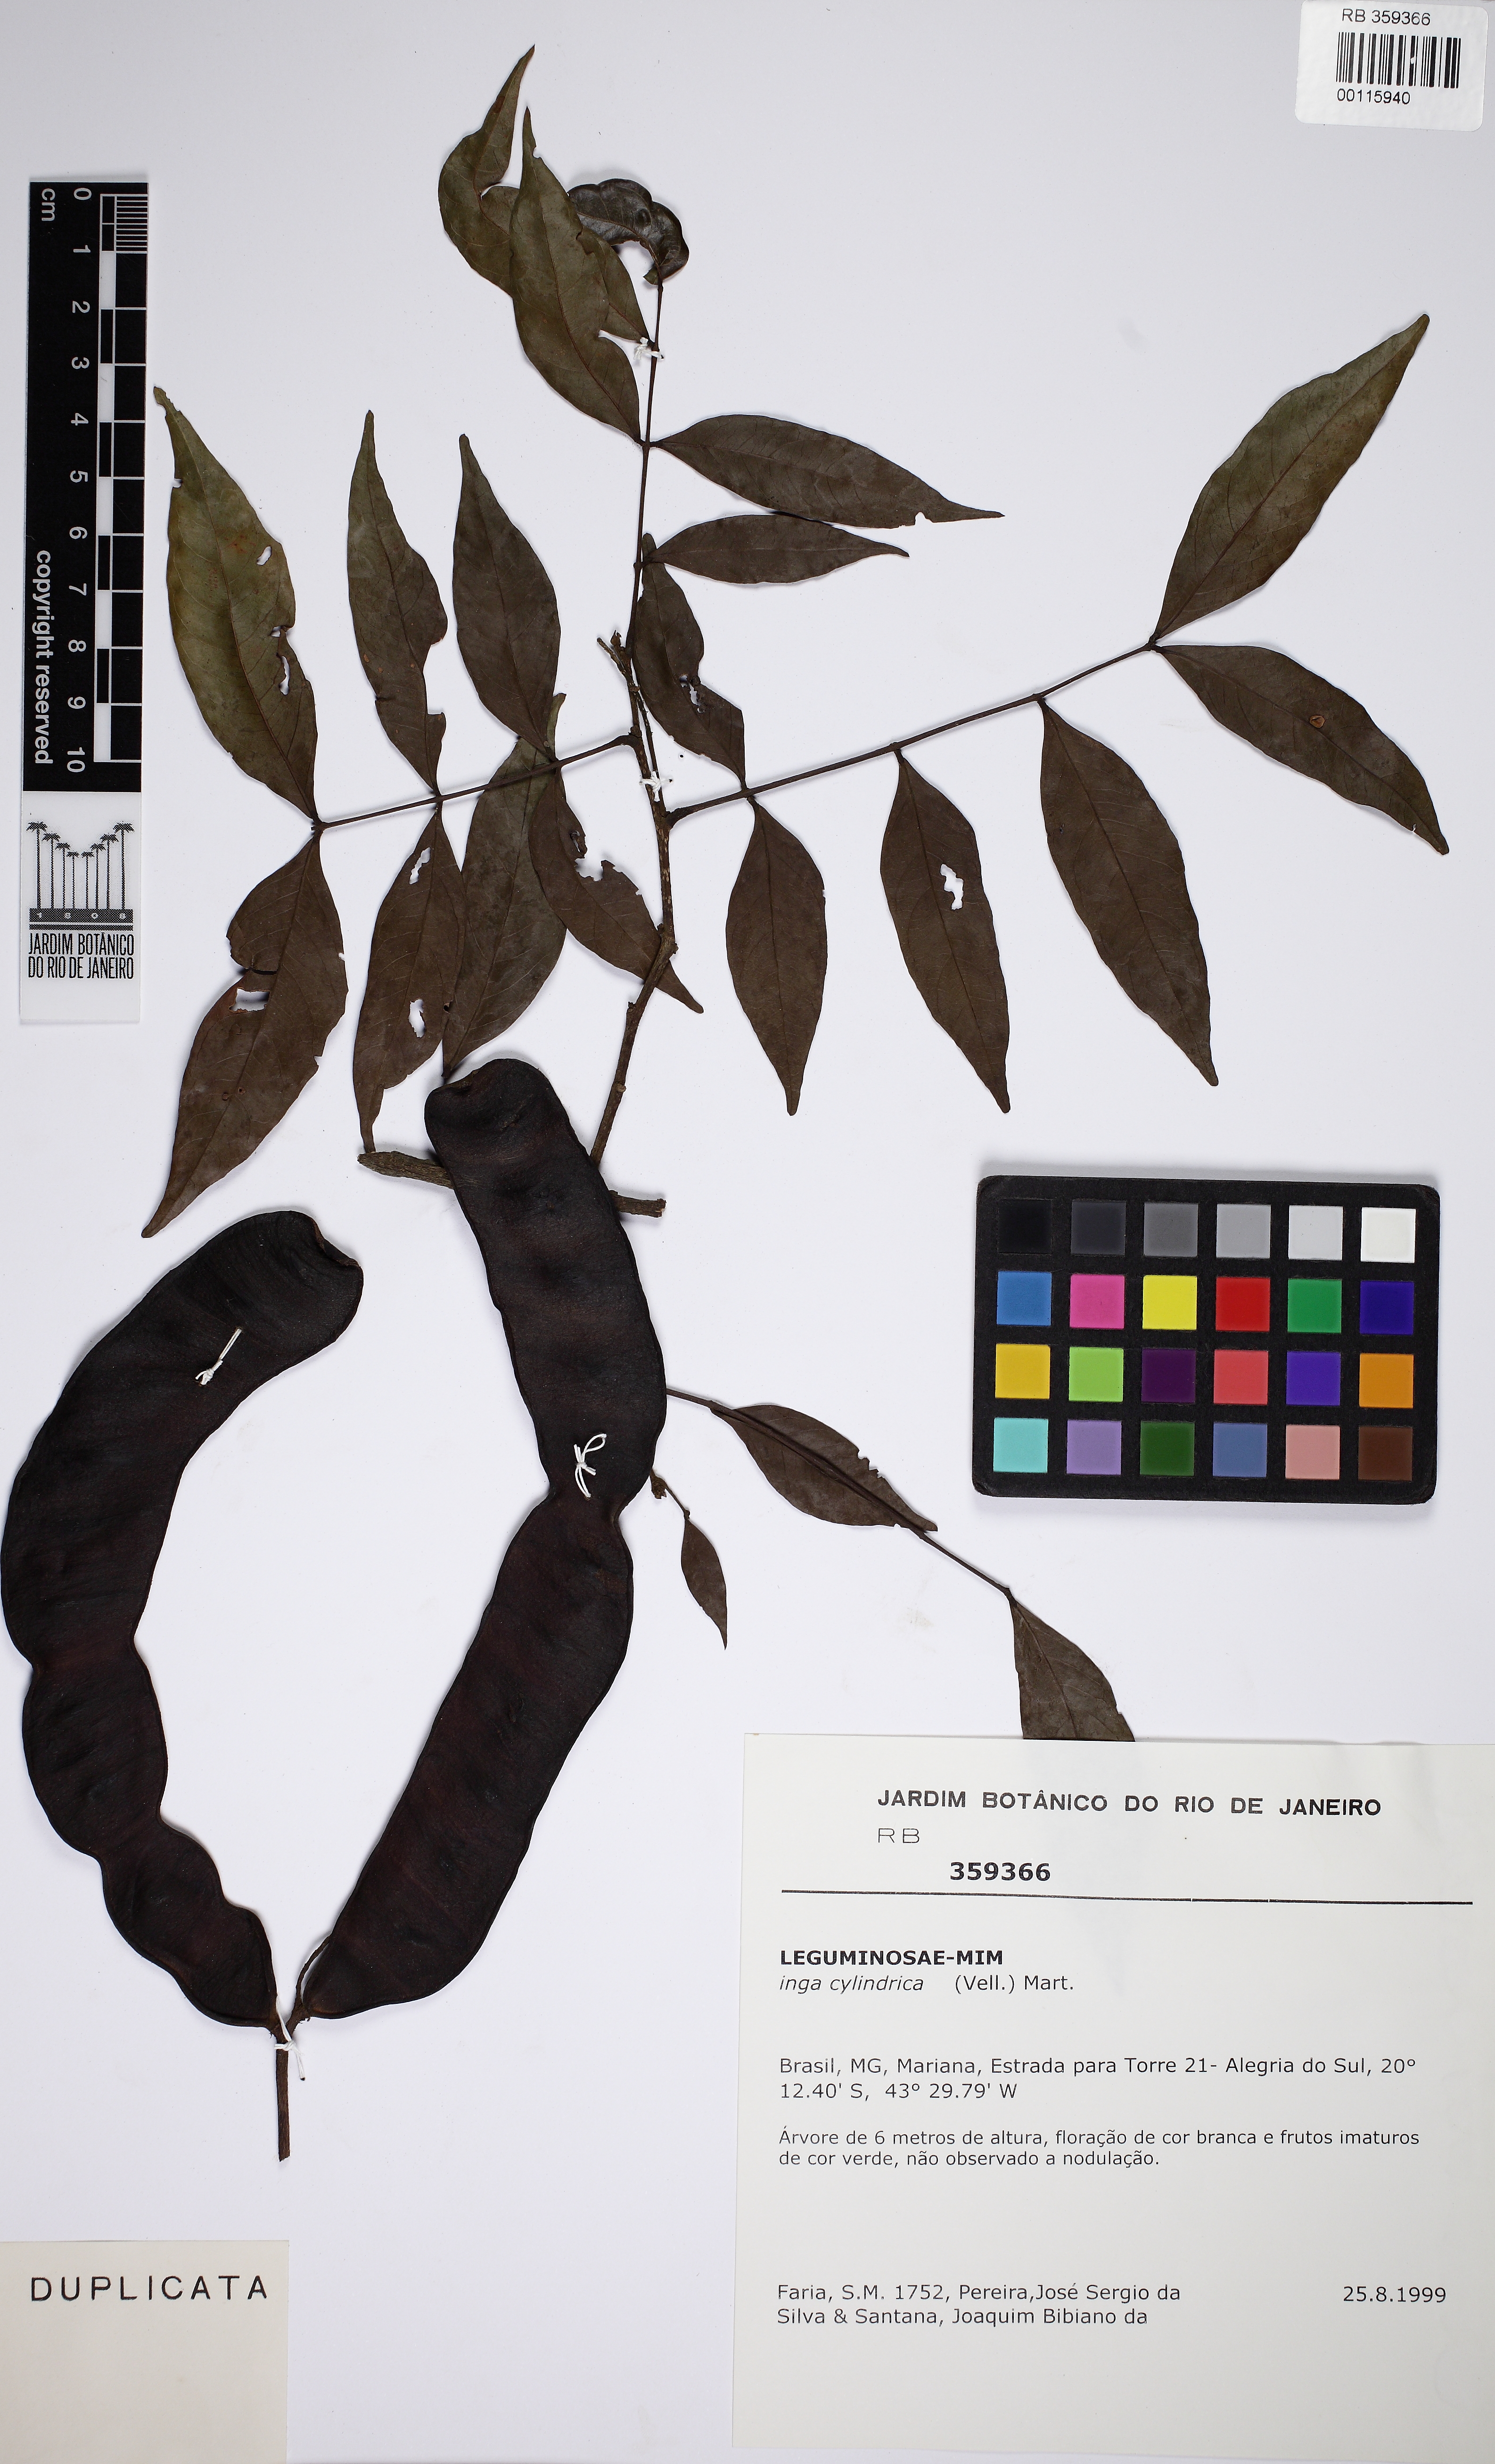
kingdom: Plantae
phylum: Tracheophyta
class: Magnoliopsida
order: Fabales
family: Fabaceae
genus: Inga
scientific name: Inga cylindrica
